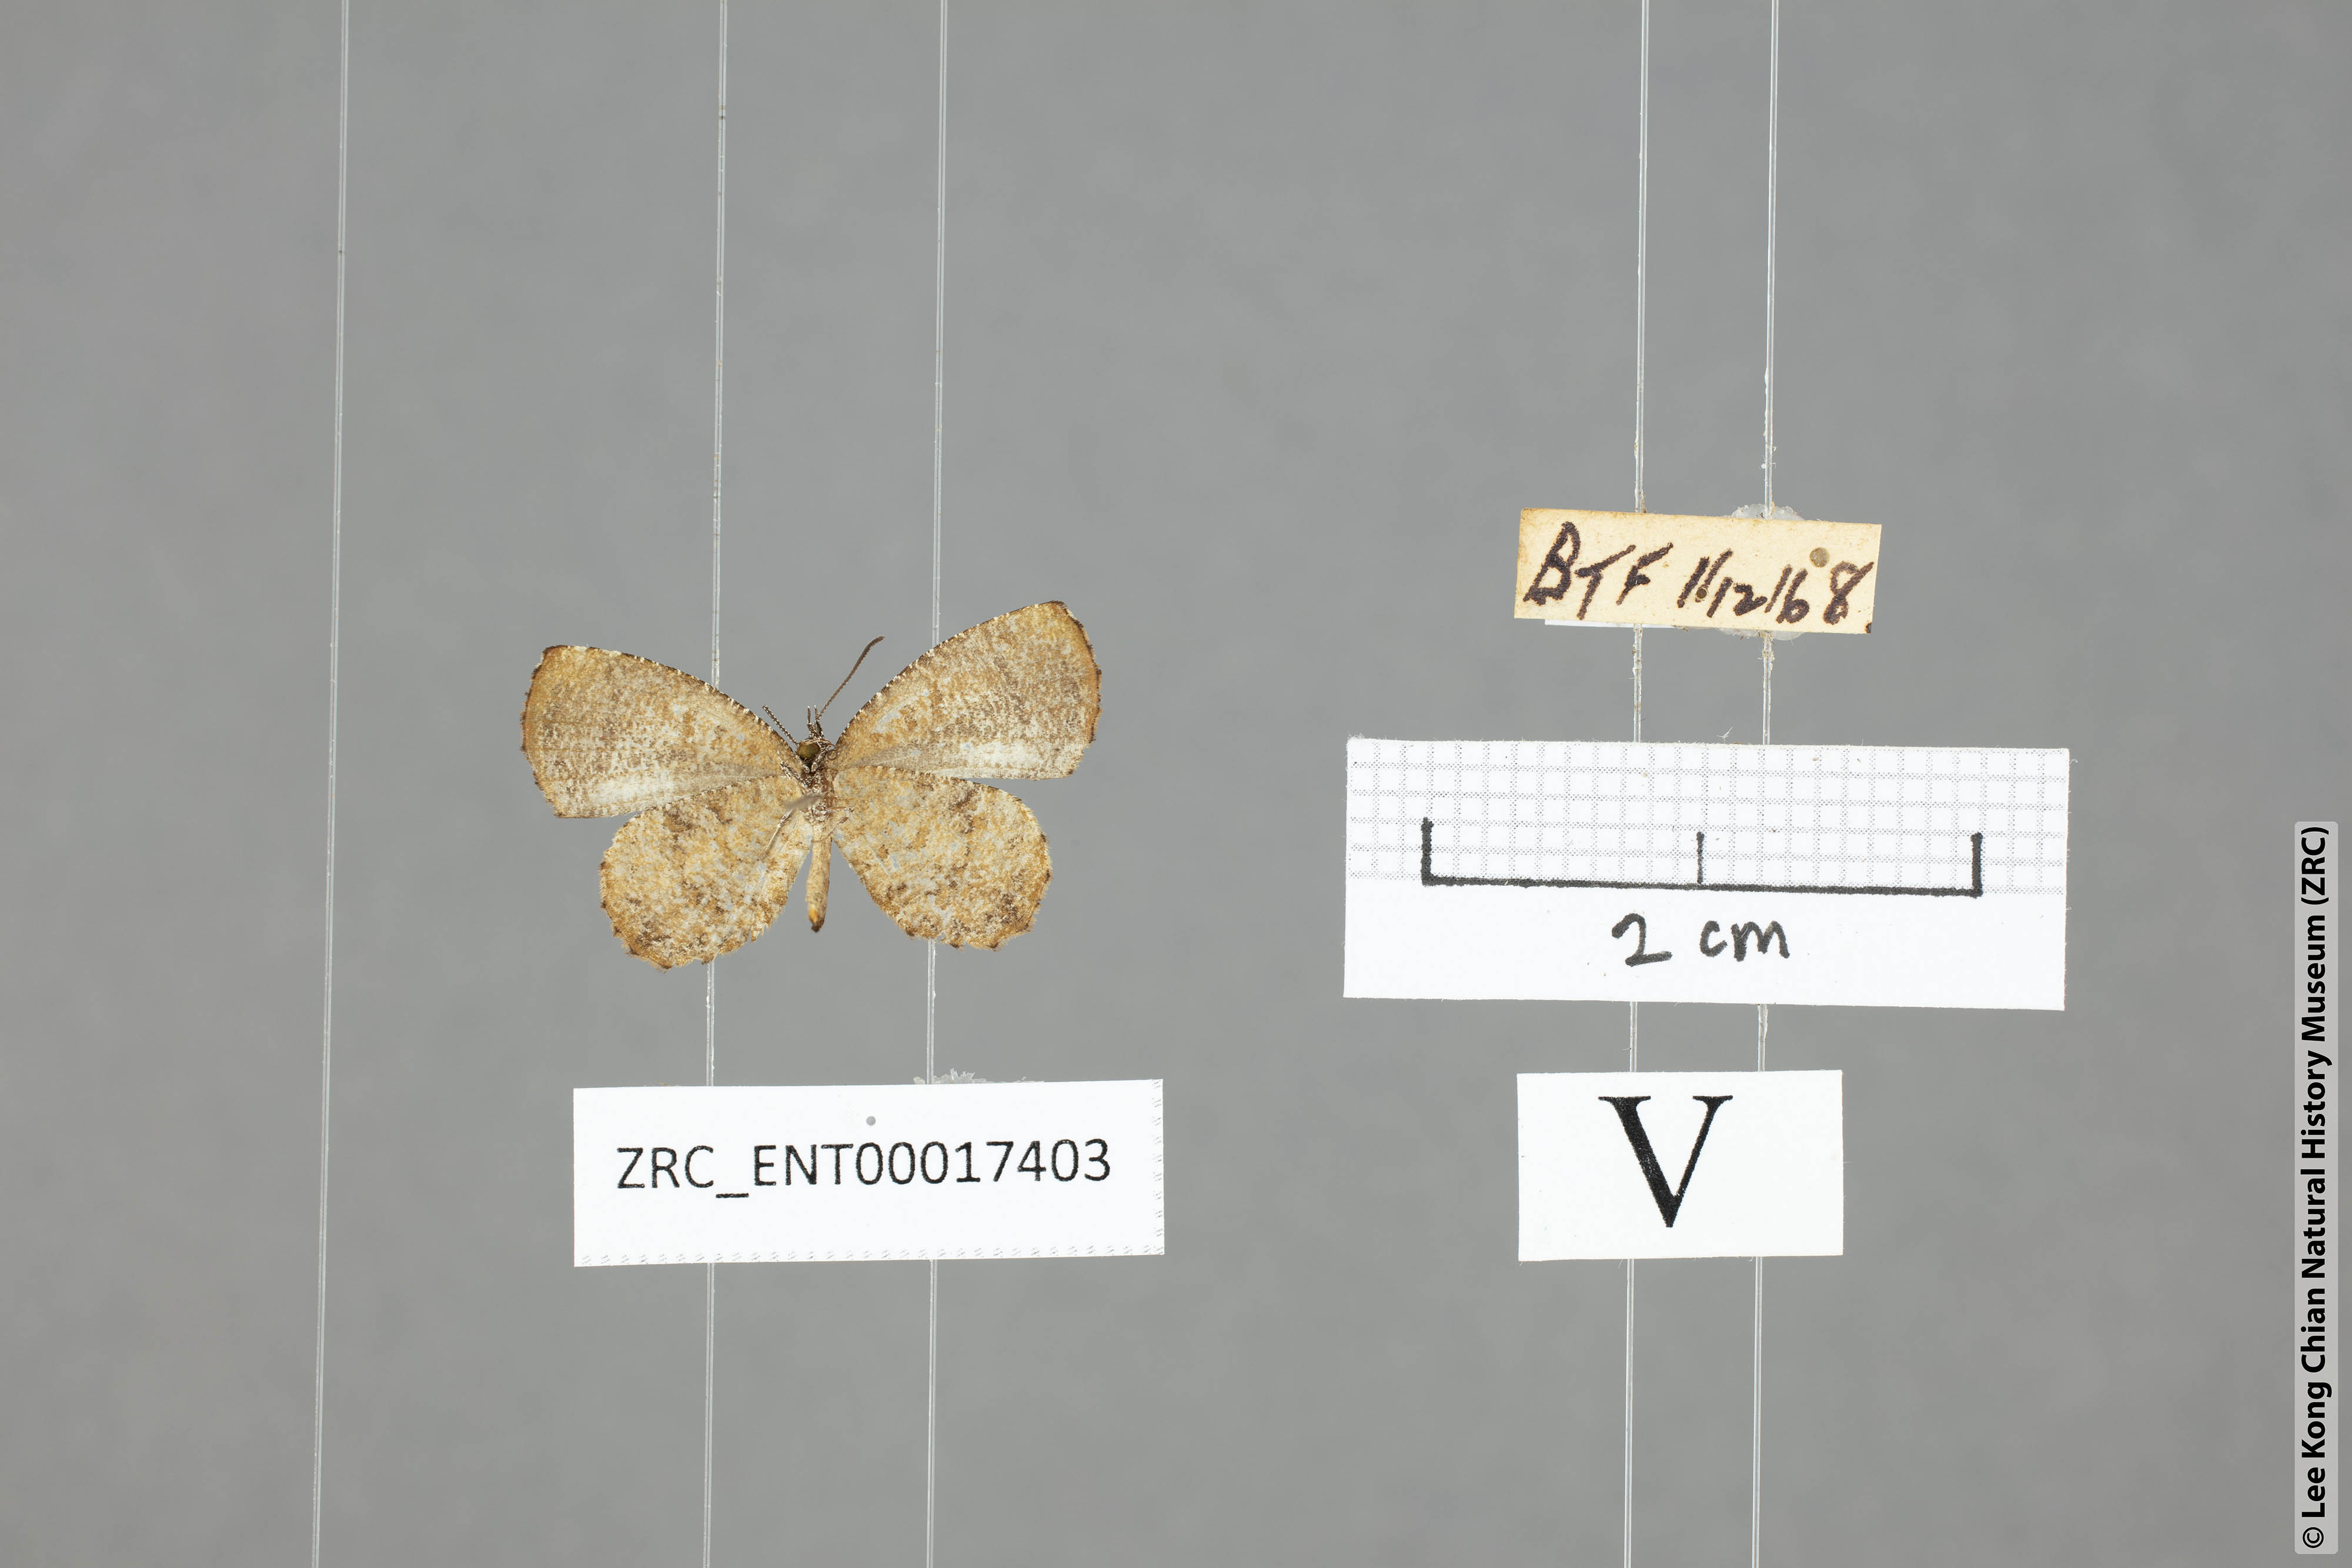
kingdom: Animalia
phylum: Arthropoda
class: Insecta
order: Lepidoptera
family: Lycaenidae
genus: Logania
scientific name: Logania distanti
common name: Dark mottle
